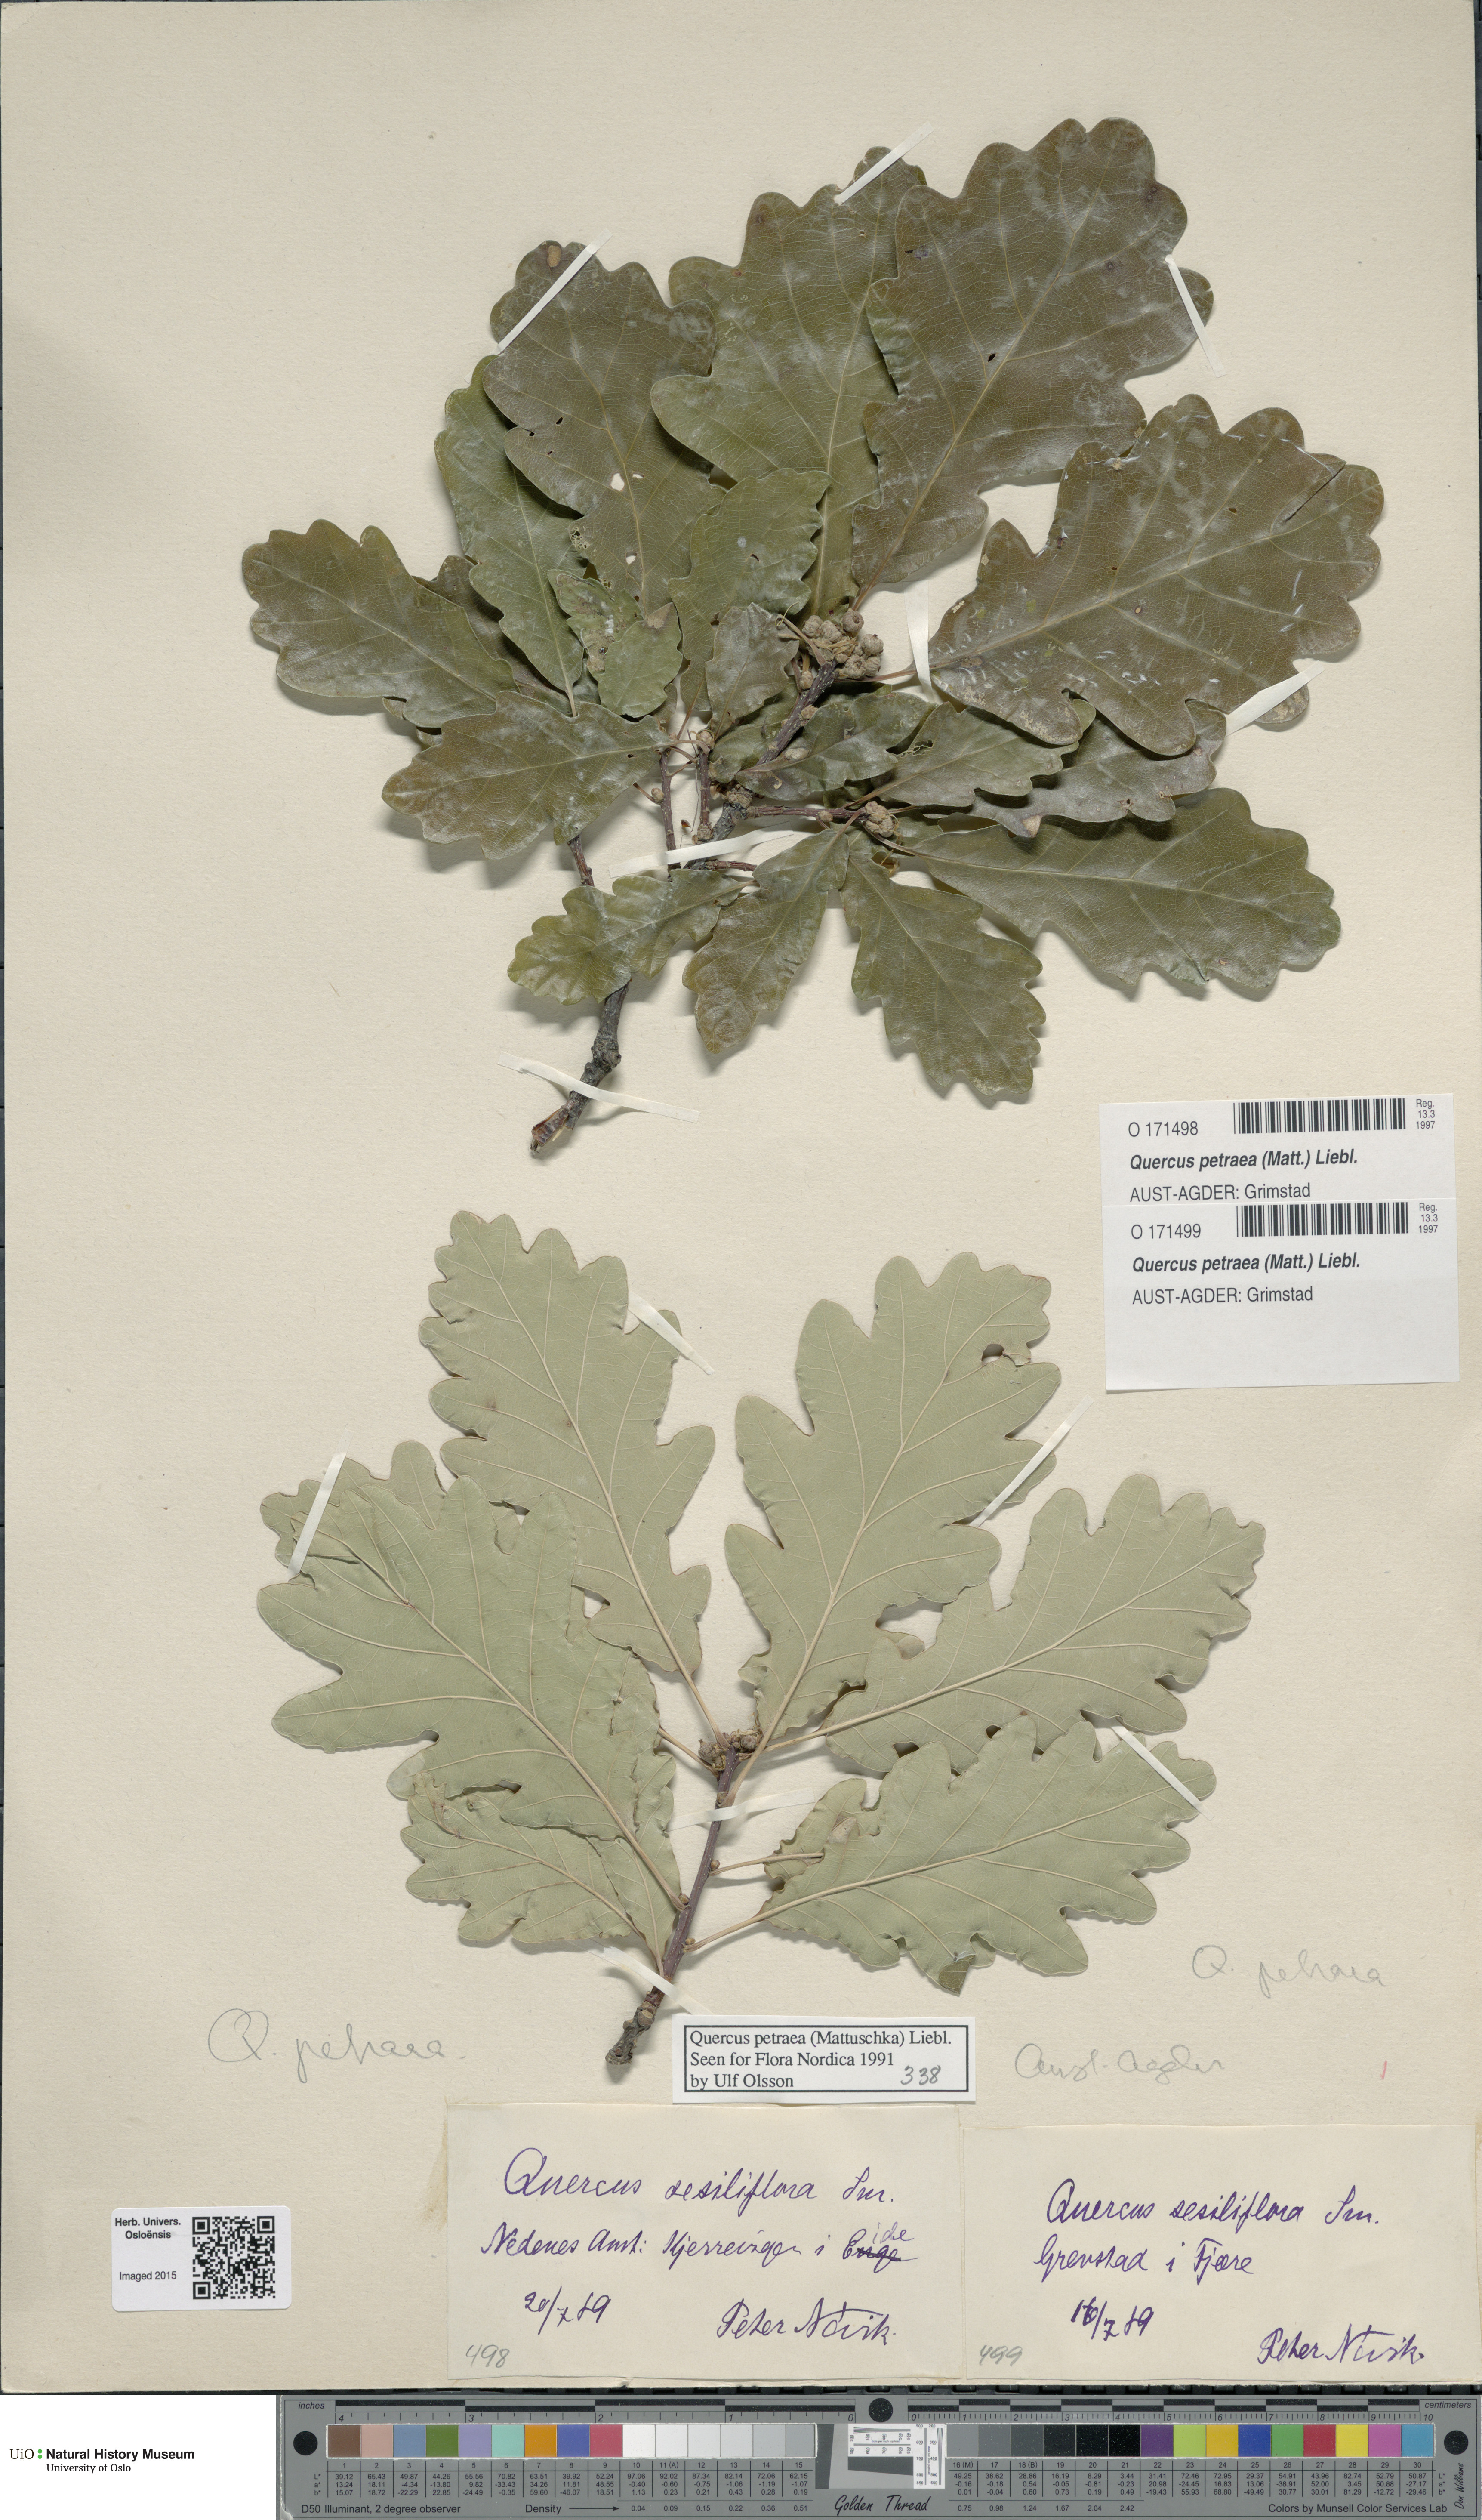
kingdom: Plantae
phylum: Tracheophyta
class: Magnoliopsida
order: Fagales
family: Fagaceae
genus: Quercus
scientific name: Quercus petraea
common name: Sessile oak
